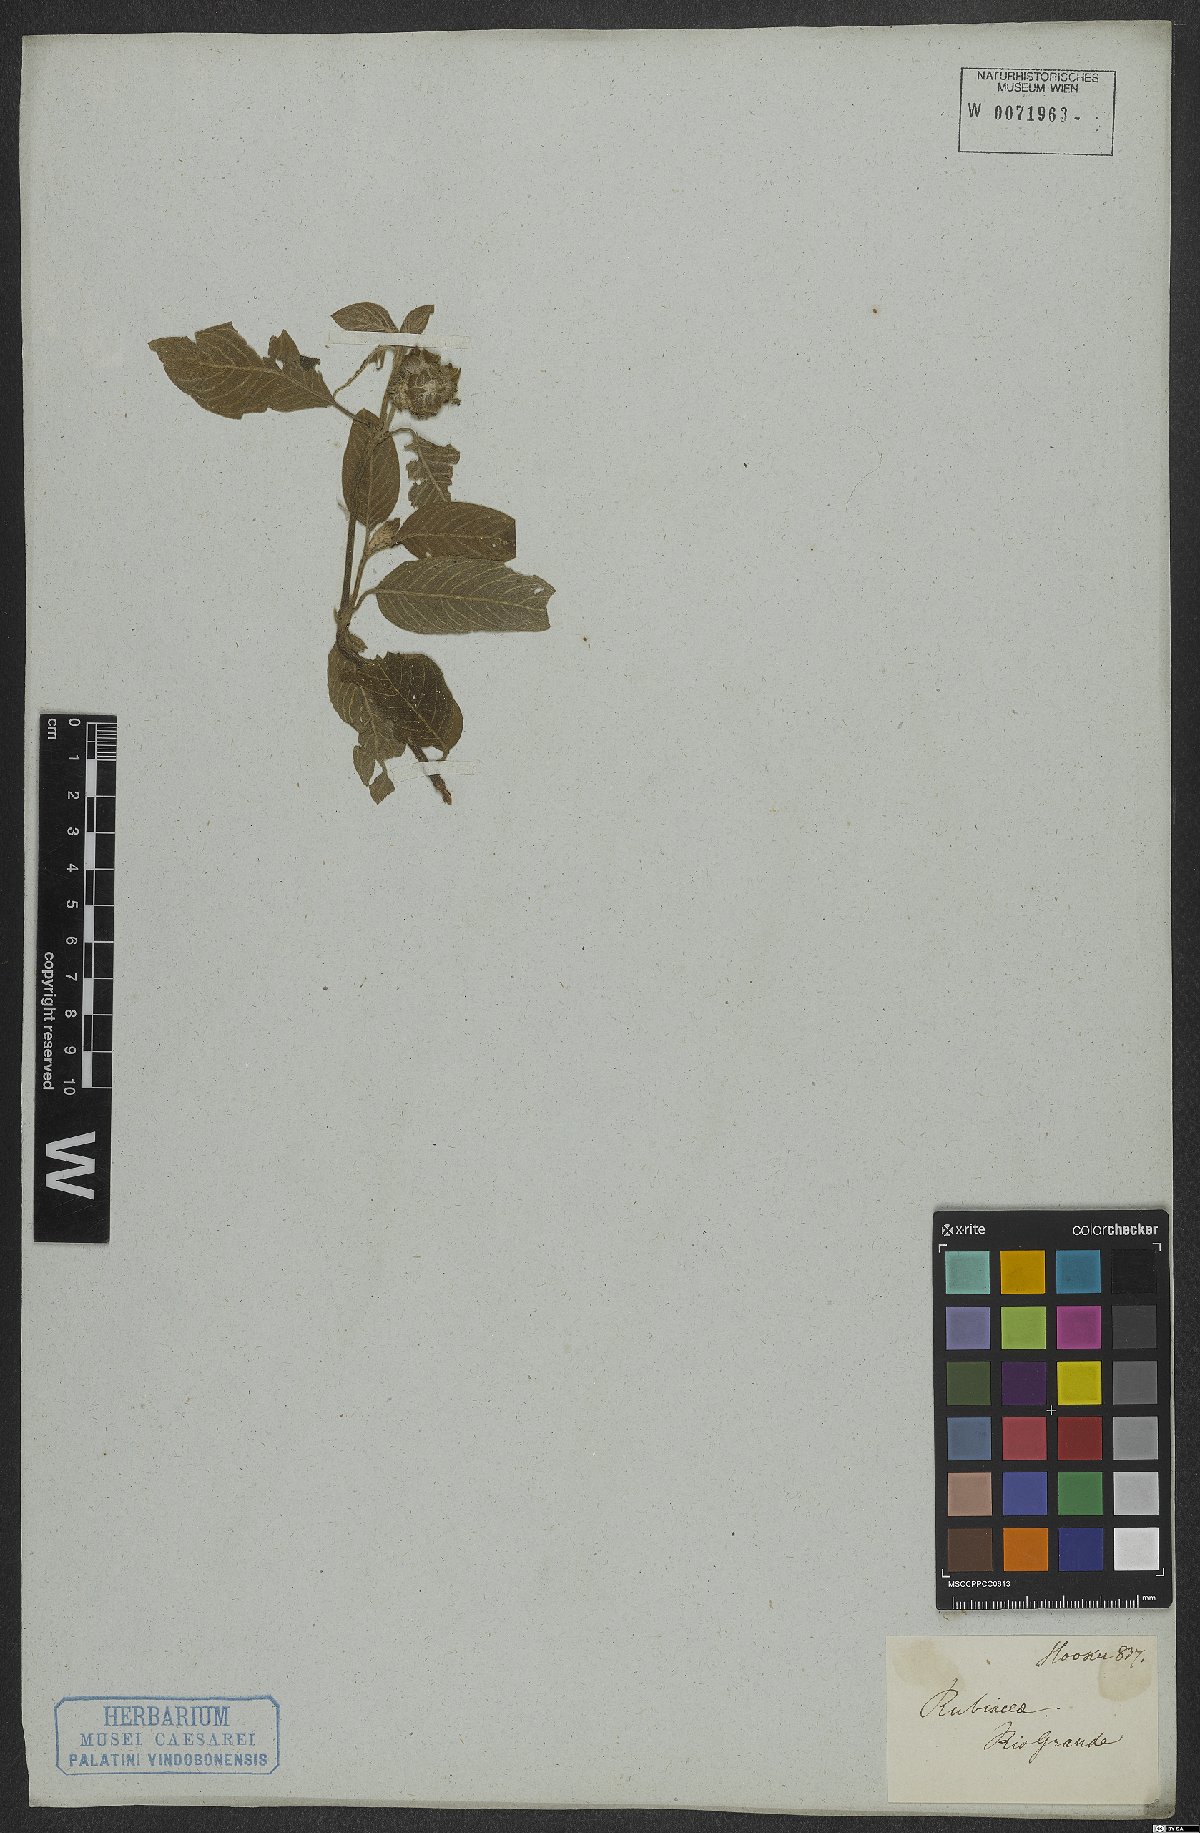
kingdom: Plantae
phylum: Tracheophyta
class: Magnoliopsida
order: Gentianales
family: Rubiaceae
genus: Coccocypselum
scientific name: Coccocypselum
